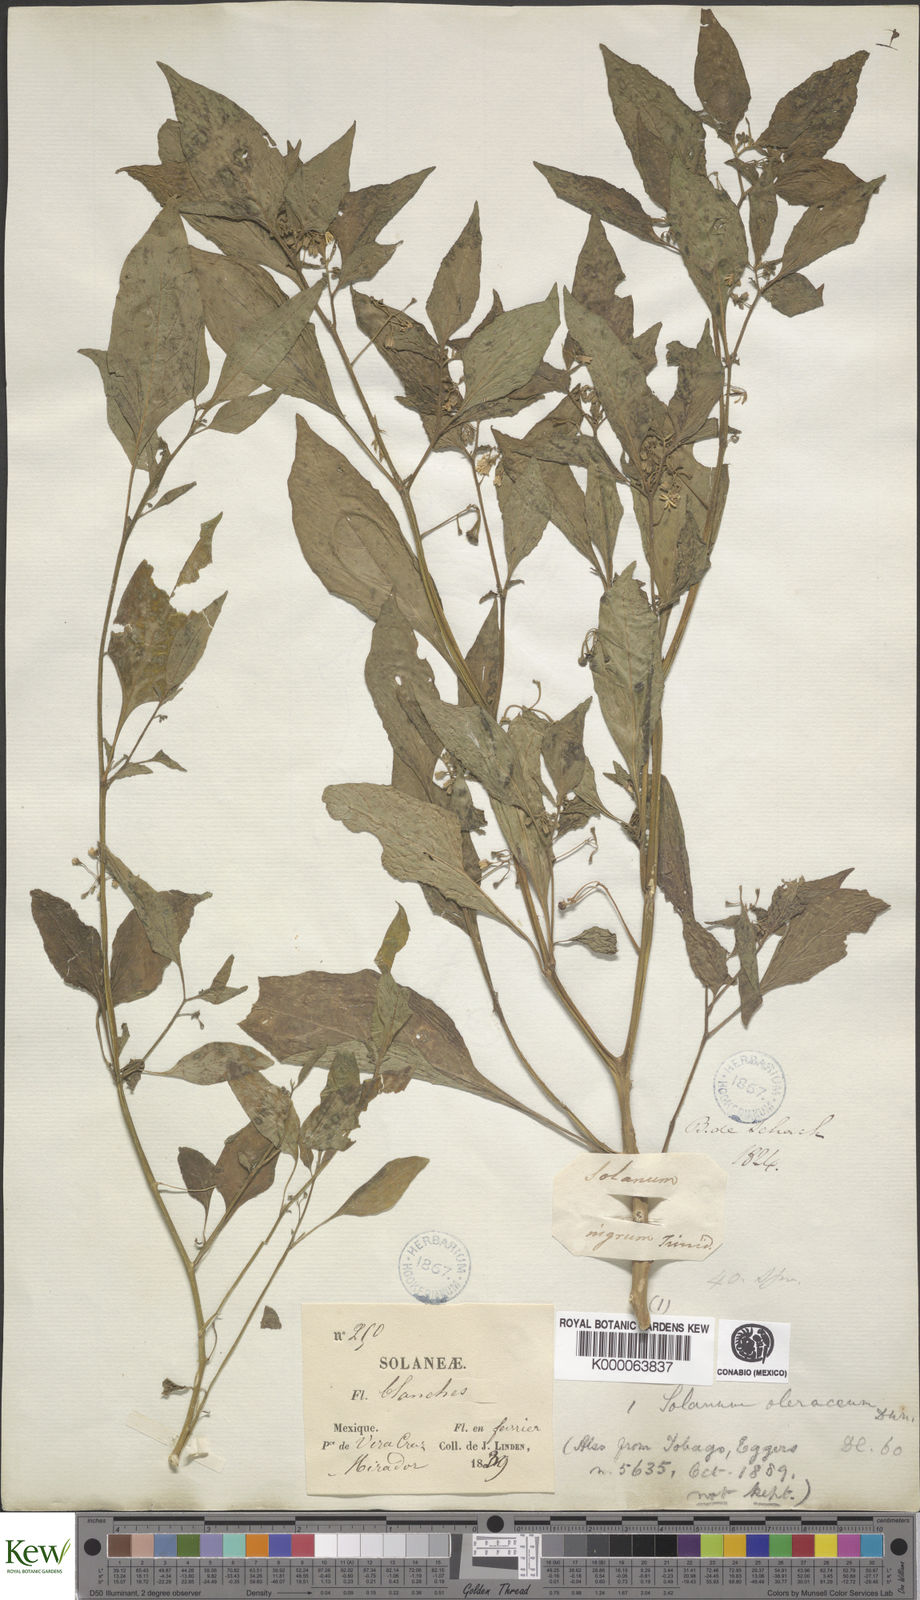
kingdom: Plantae
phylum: Tracheophyta
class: Magnoliopsida
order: Solanales
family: Solanaceae
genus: Solanum
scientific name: Solanum americanum
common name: American black nightshade
